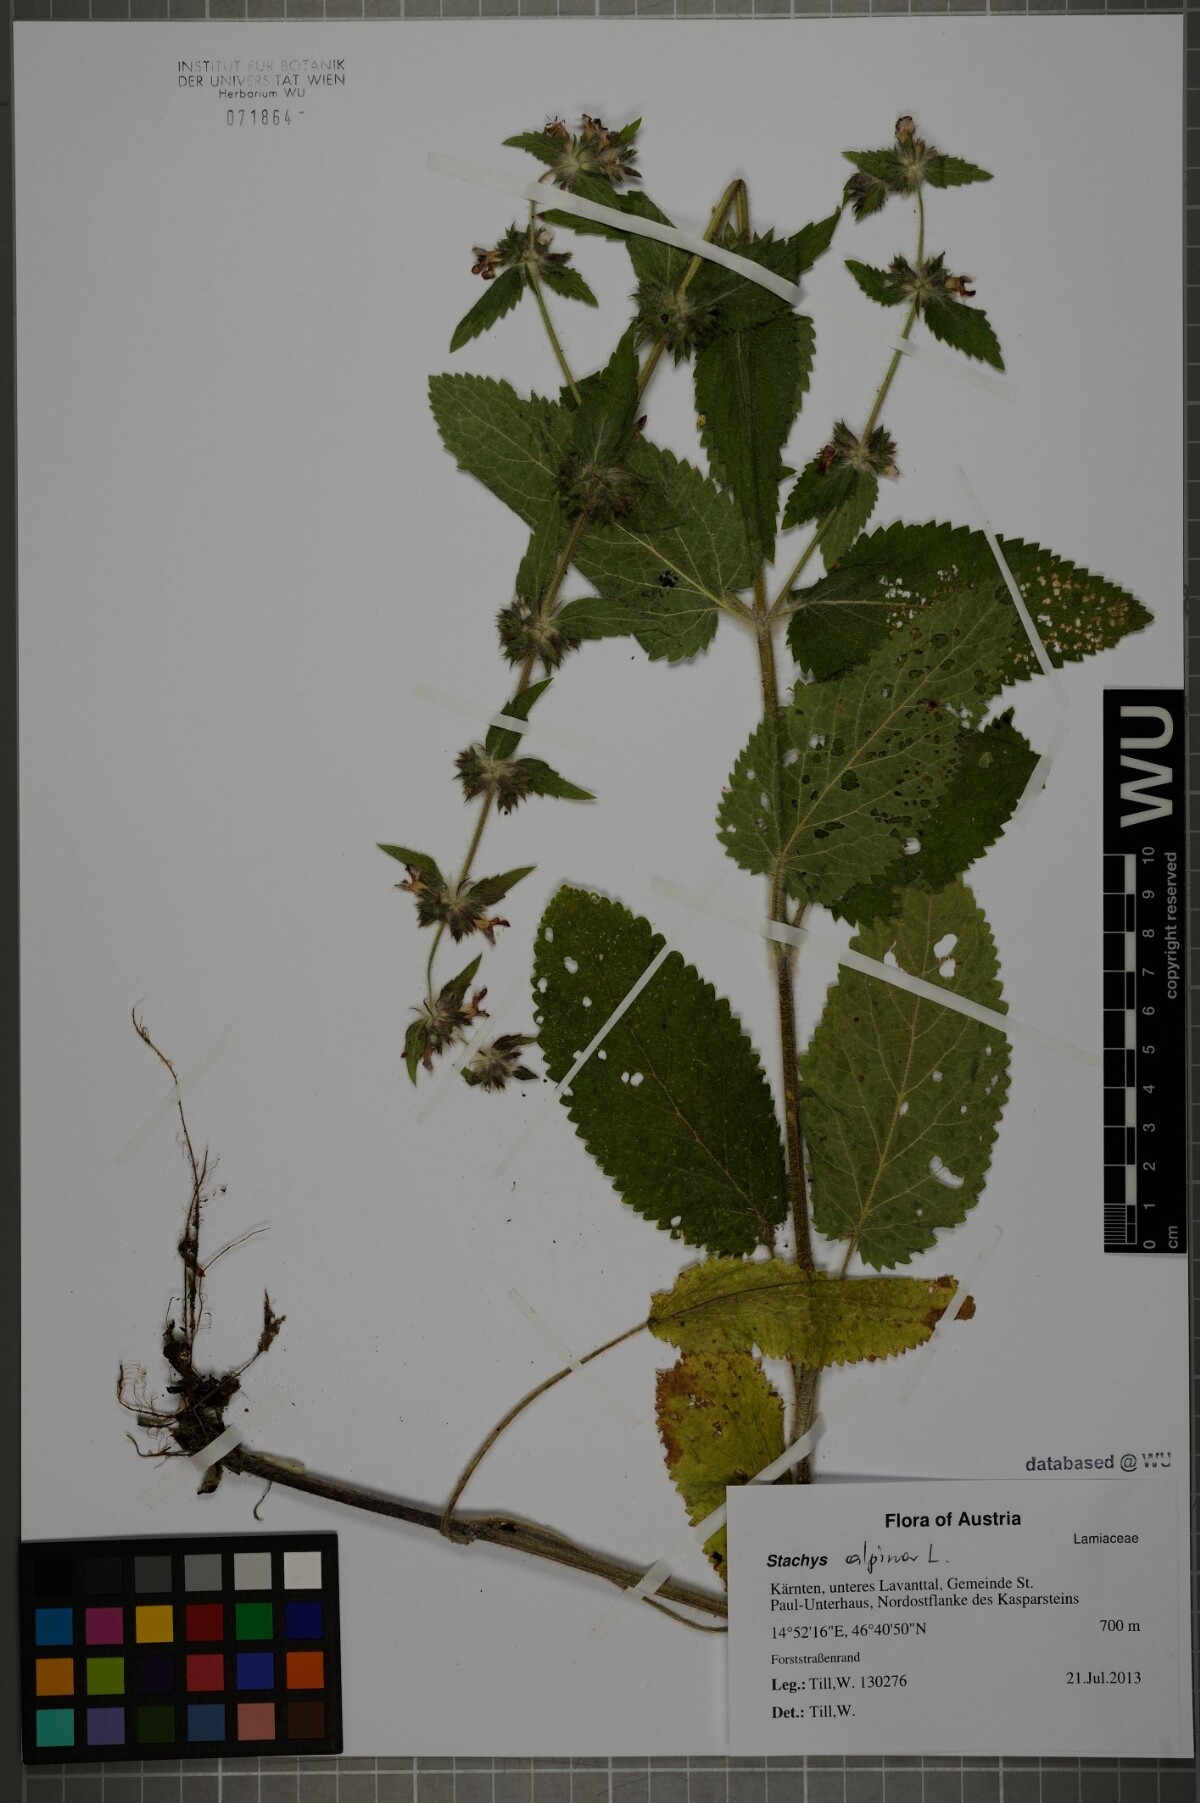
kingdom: Plantae
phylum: Tracheophyta
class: Magnoliopsida
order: Lamiales
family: Lamiaceae
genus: Stachys
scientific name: Stachys alpina
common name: Limestone woundwort
